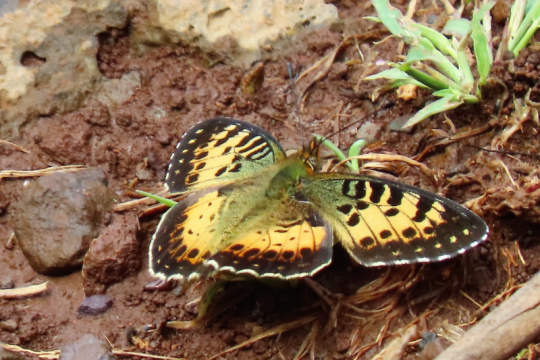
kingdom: Animalia
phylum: Arthropoda
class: Insecta
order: Lepidoptera
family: Nymphalidae
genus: Issoria
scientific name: Issoria hanningtoni
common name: Hannington's Fritillary
